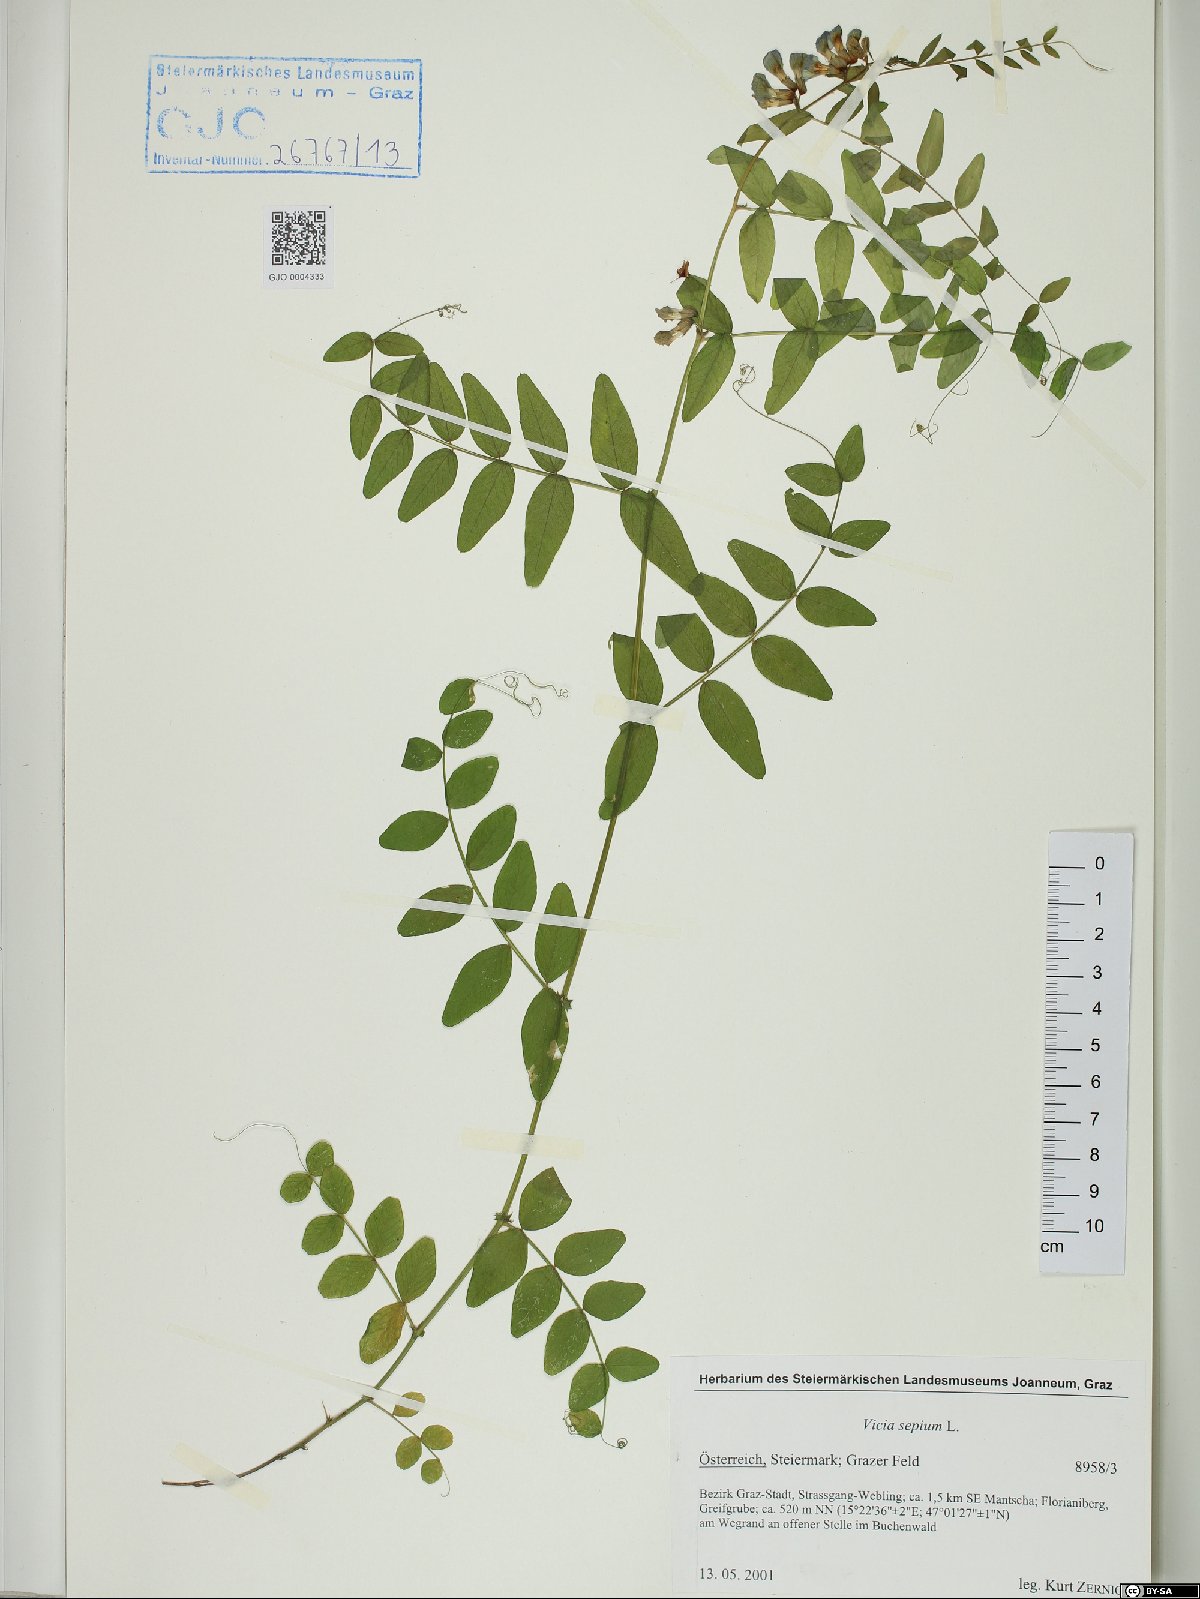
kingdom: Plantae
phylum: Tracheophyta
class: Magnoliopsida
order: Fabales
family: Fabaceae
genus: Vicia
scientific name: Vicia sepium
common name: Bush vetch
